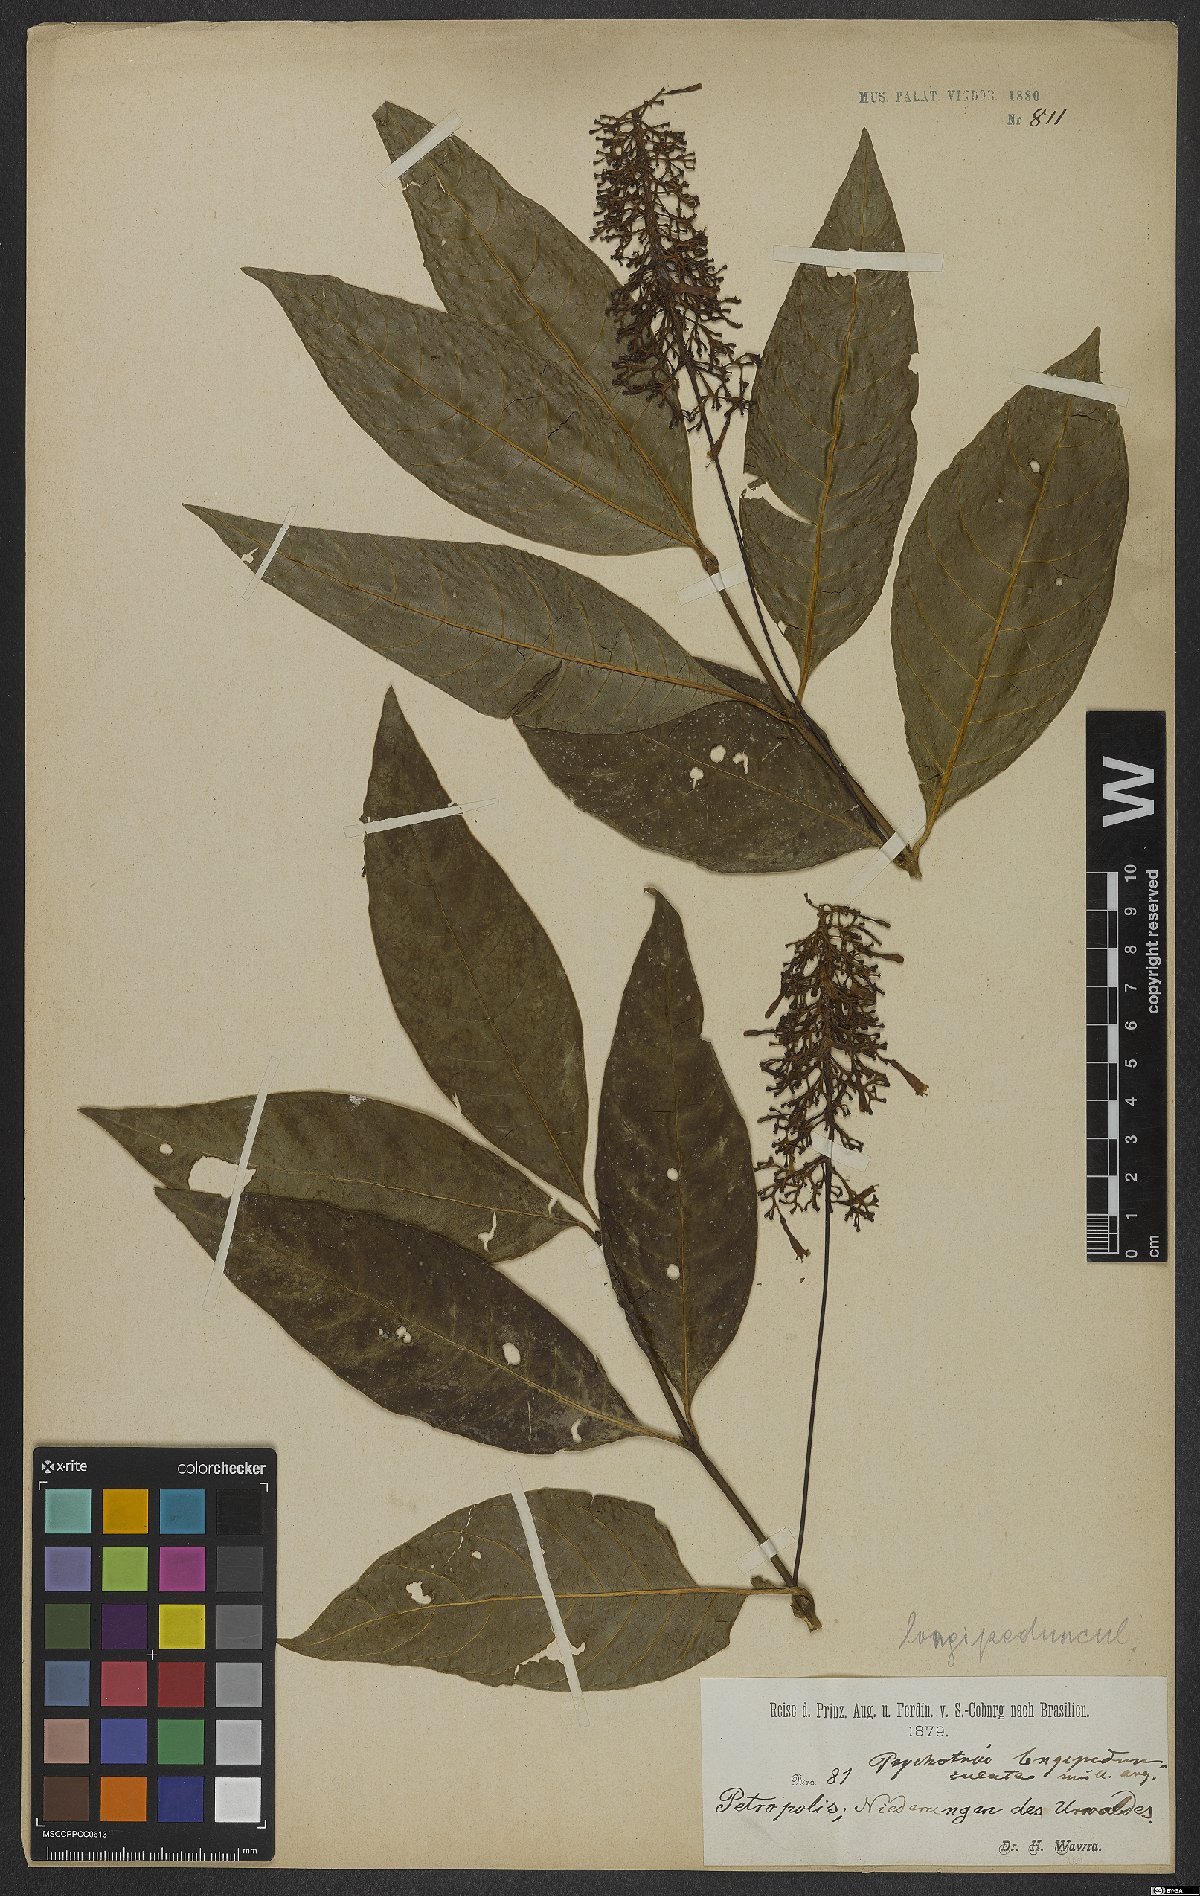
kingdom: Plantae
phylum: Tracheophyta
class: Magnoliopsida
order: Gentianales
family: Rubiaceae
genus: Notopleura
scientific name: Notopleura longipedunculoides
